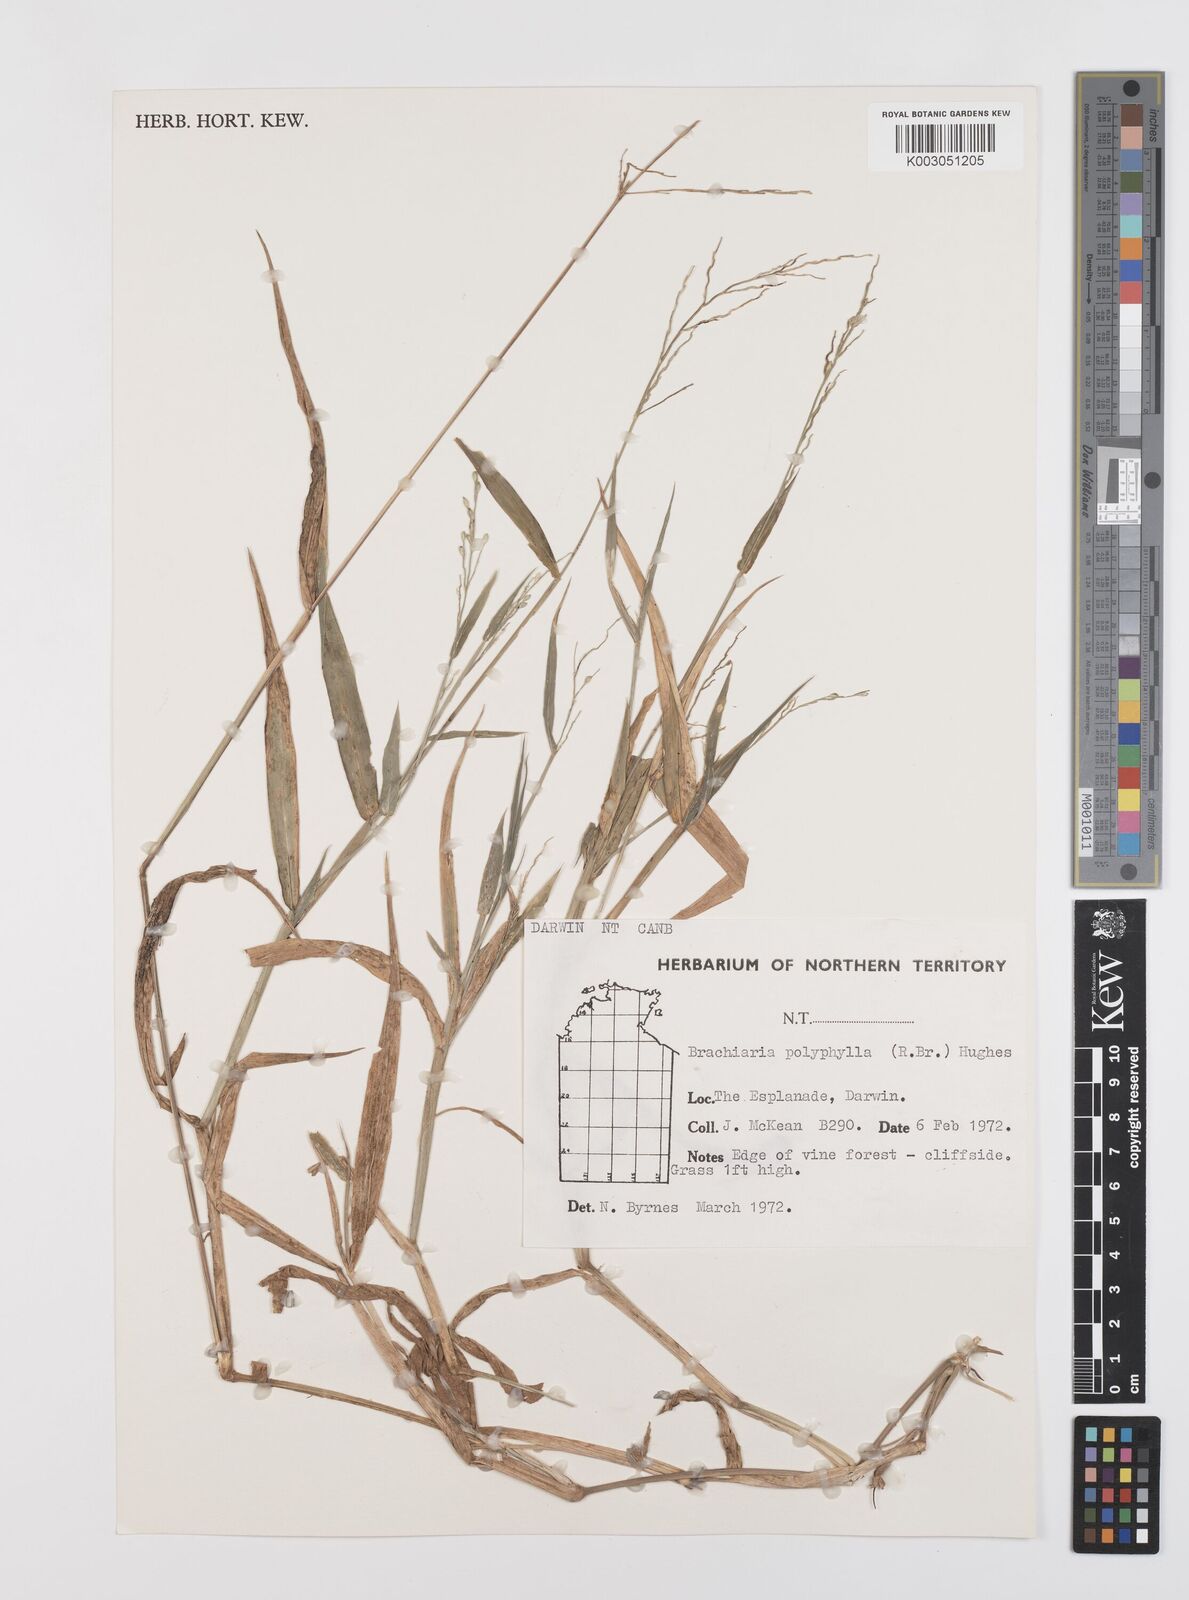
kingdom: Plantae
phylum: Tracheophyta
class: Liliopsida
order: Poales
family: Poaceae
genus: Urochloa
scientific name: Urochloa polyphylla
